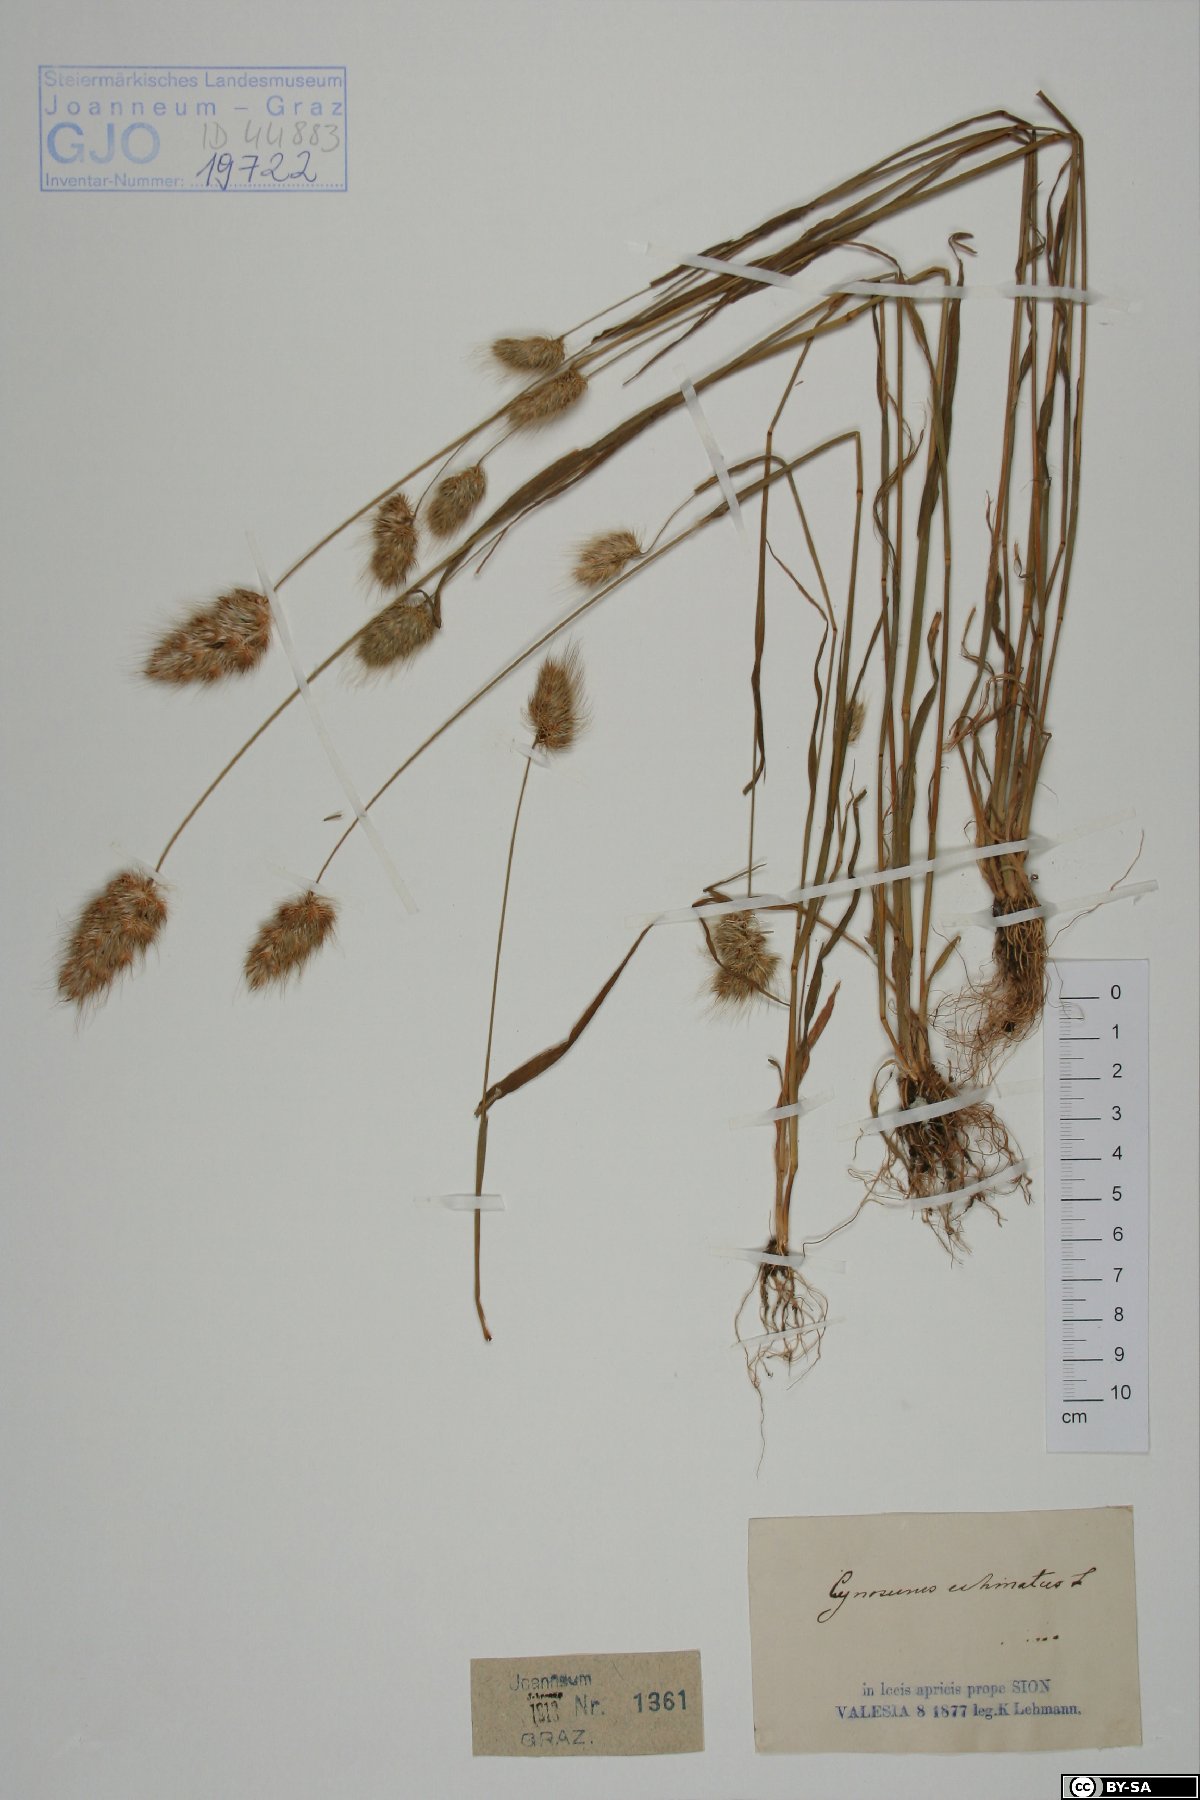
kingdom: Plantae
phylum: Tracheophyta
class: Liliopsida
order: Poales
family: Poaceae
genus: Cynosurus
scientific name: Cynosurus echinatus
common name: Rough dog's-tail
